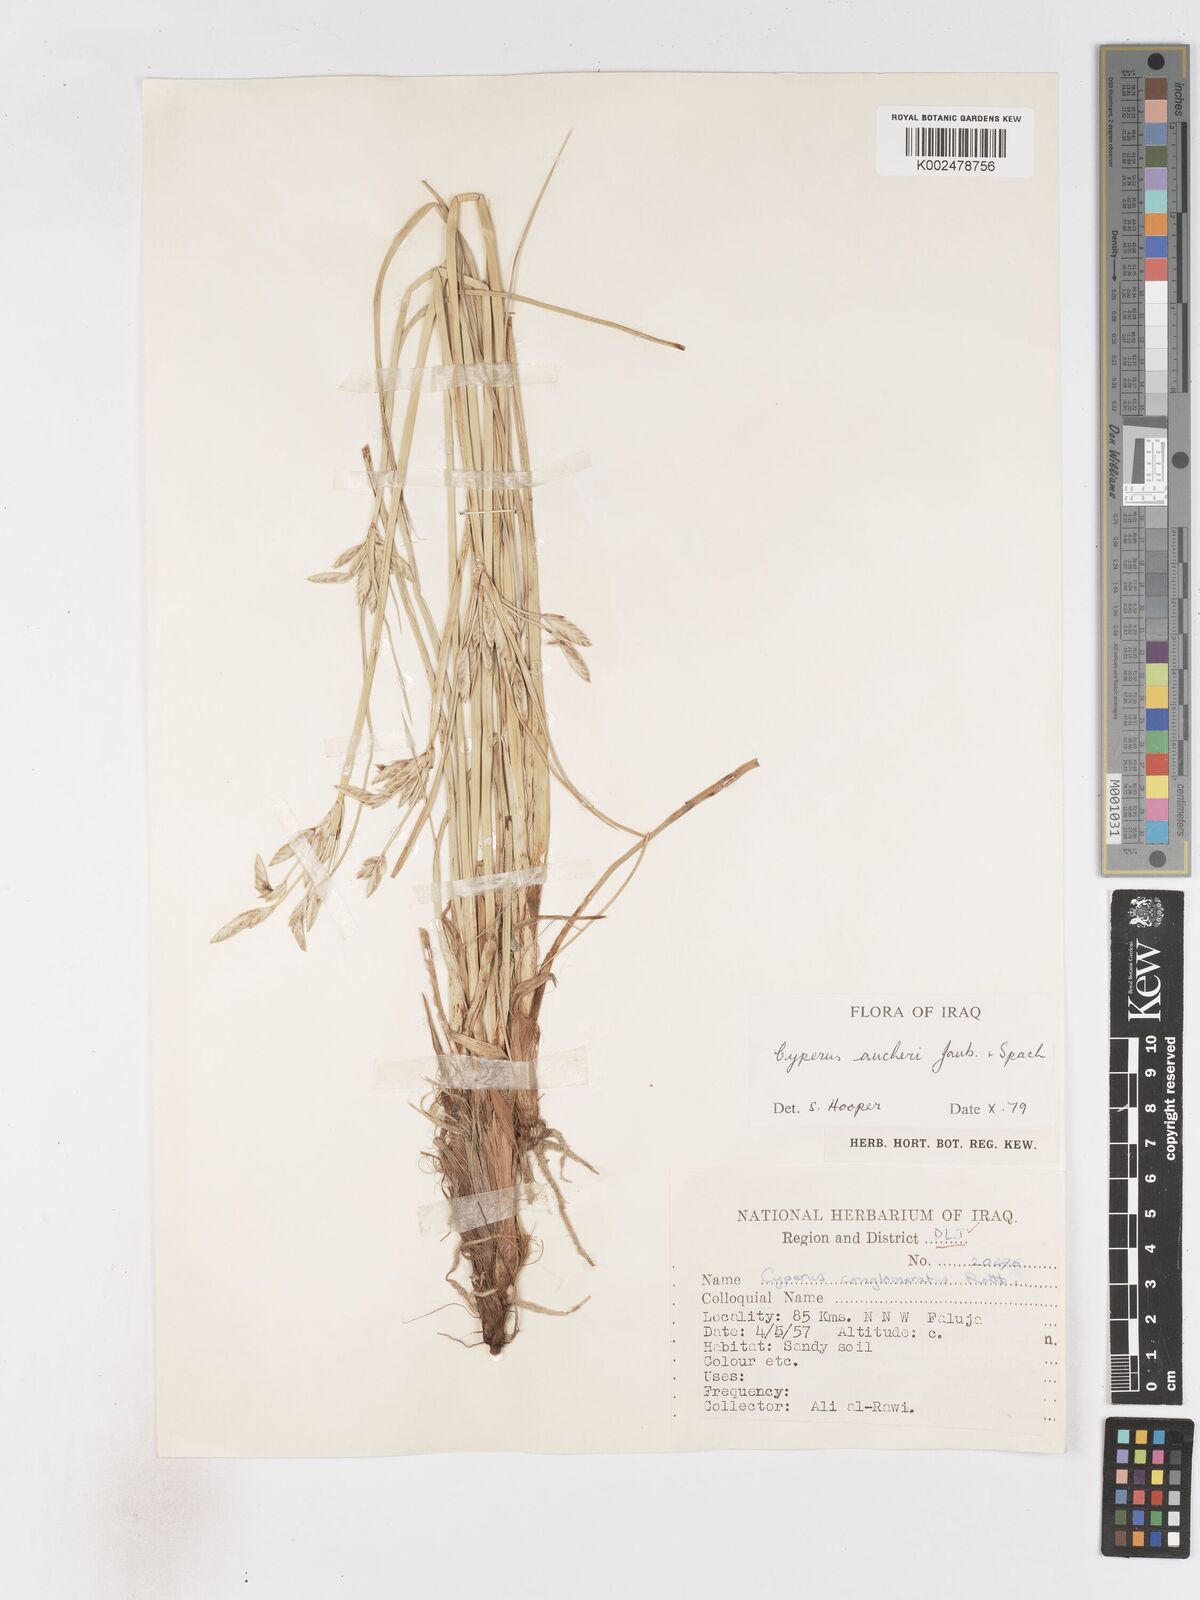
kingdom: Plantae
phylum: Tracheophyta
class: Liliopsida
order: Poales
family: Cyperaceae
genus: Cyperus
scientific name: Cyperus aucheri
